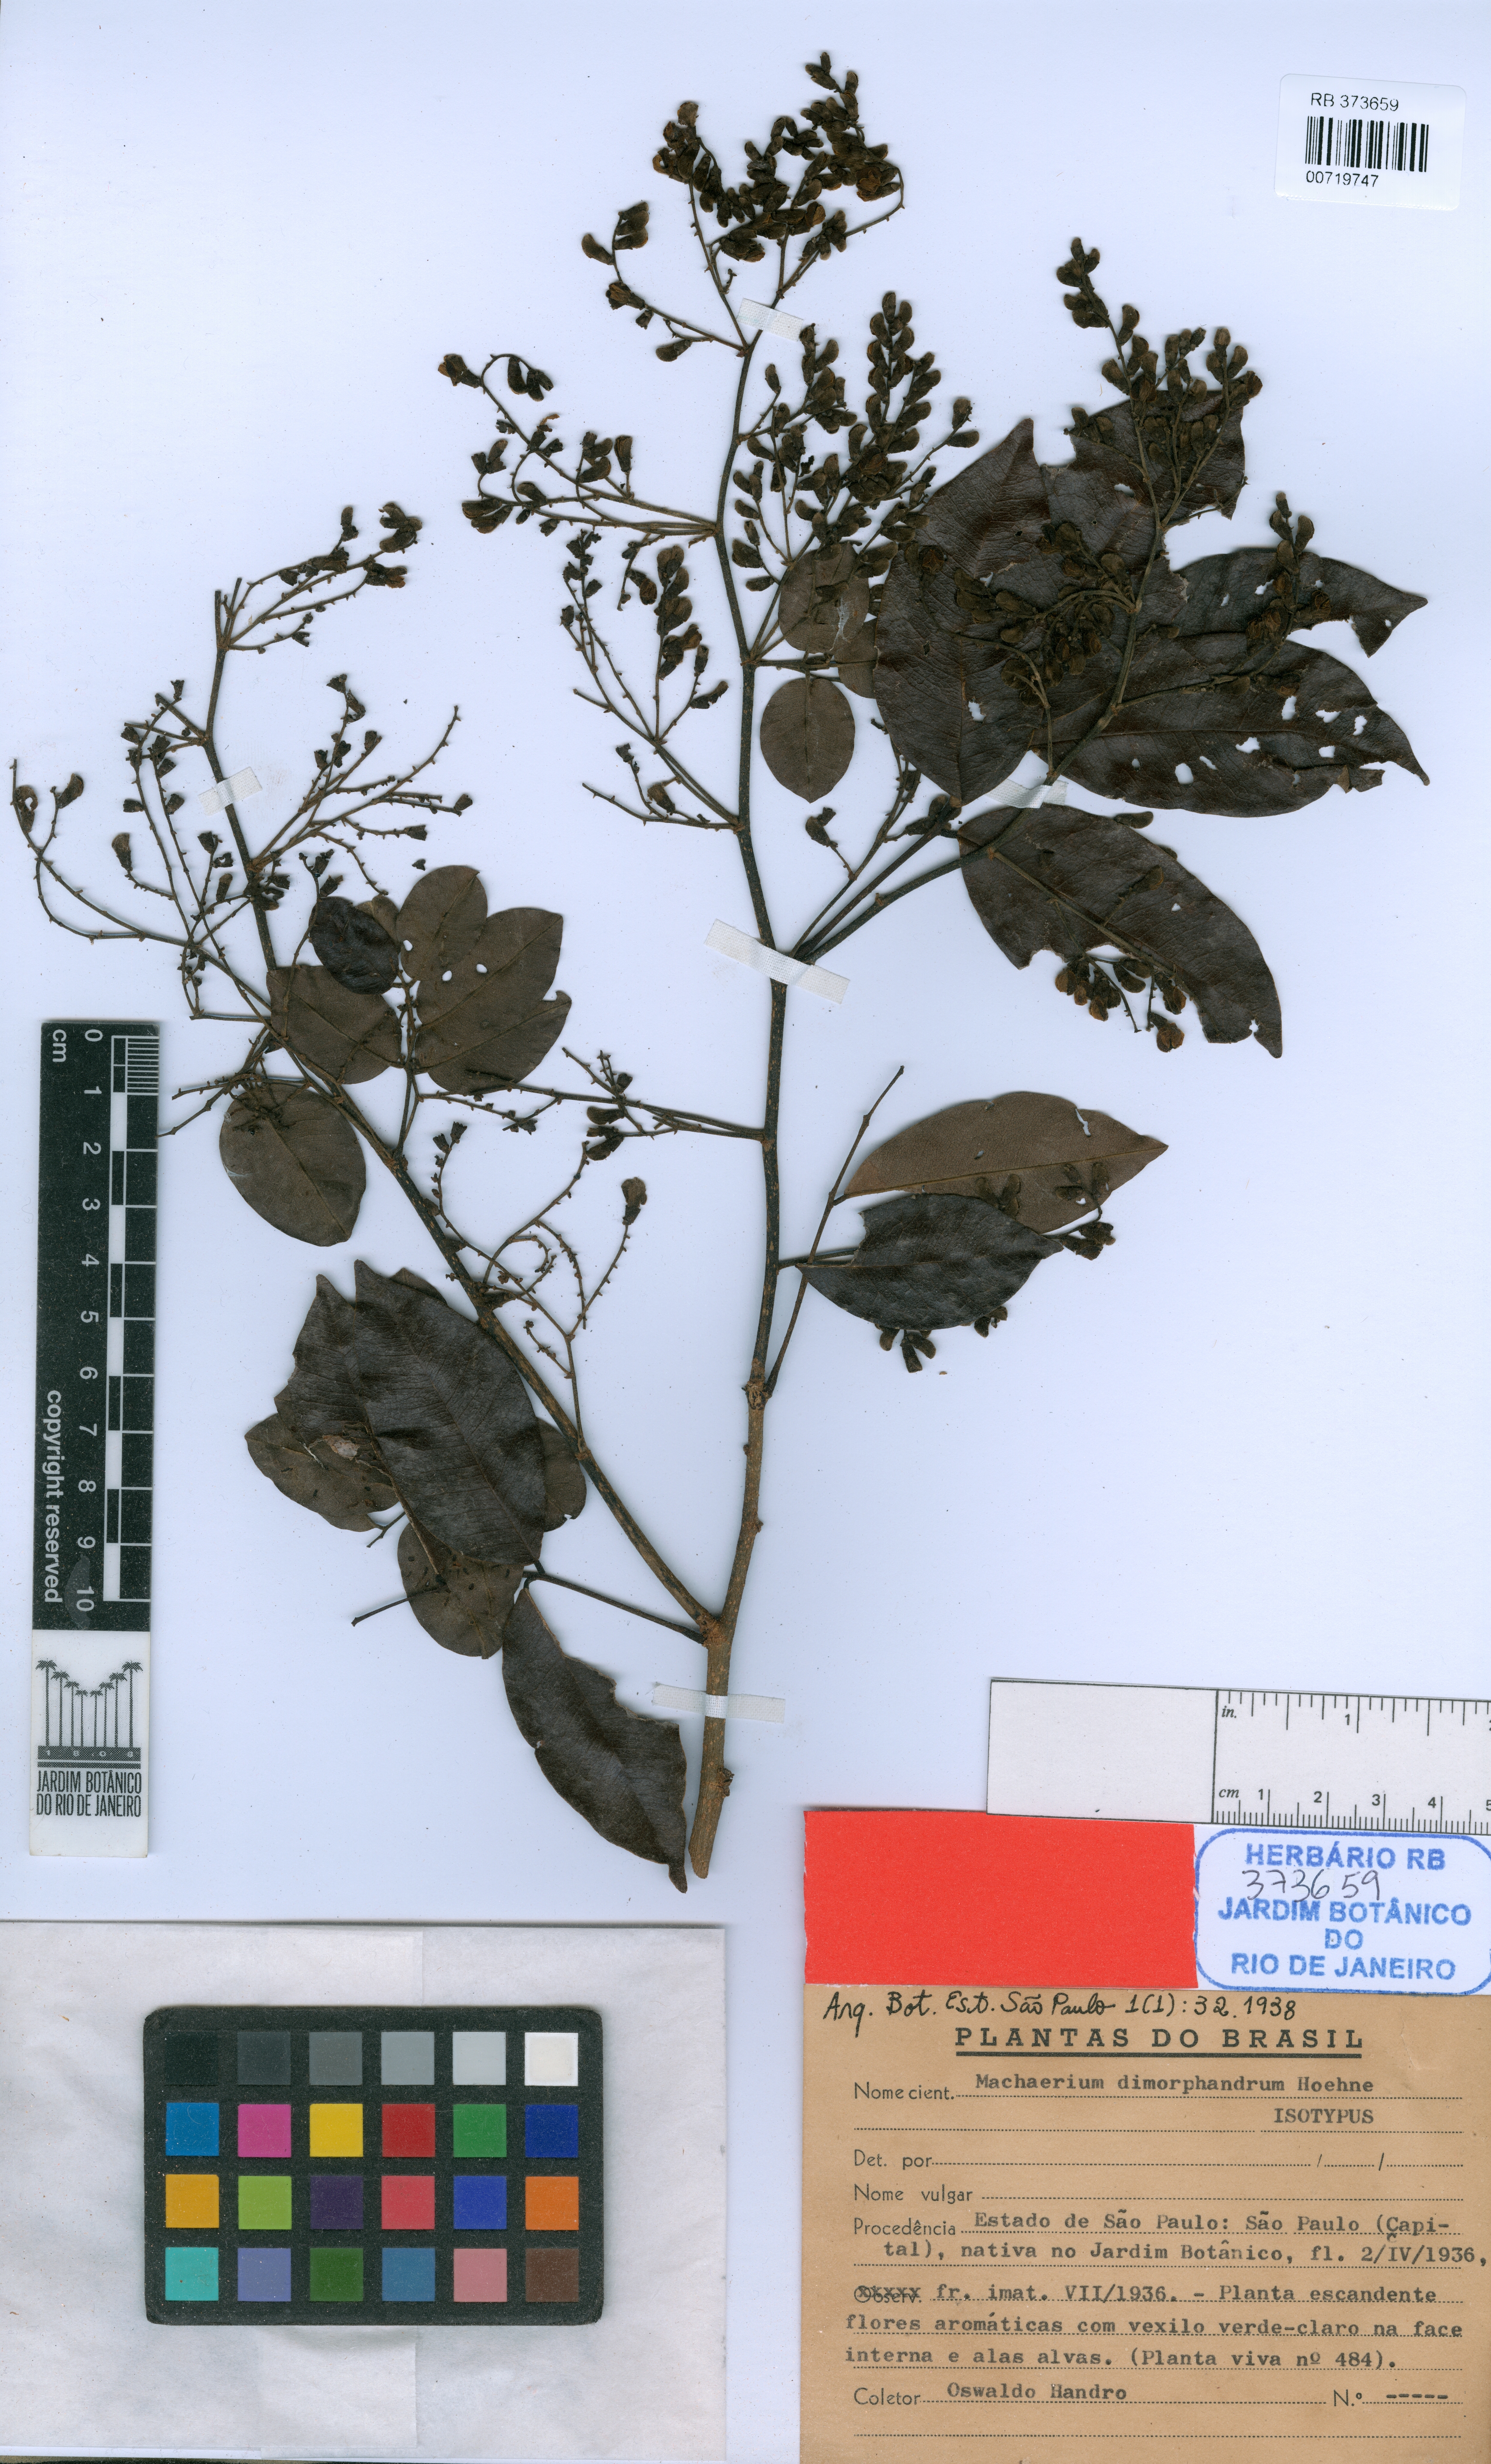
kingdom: Plantae
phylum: Tracheophyta
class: Magnoliopsida
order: Fabales
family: Fabaceae
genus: Machaerium
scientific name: Machaerium debile
